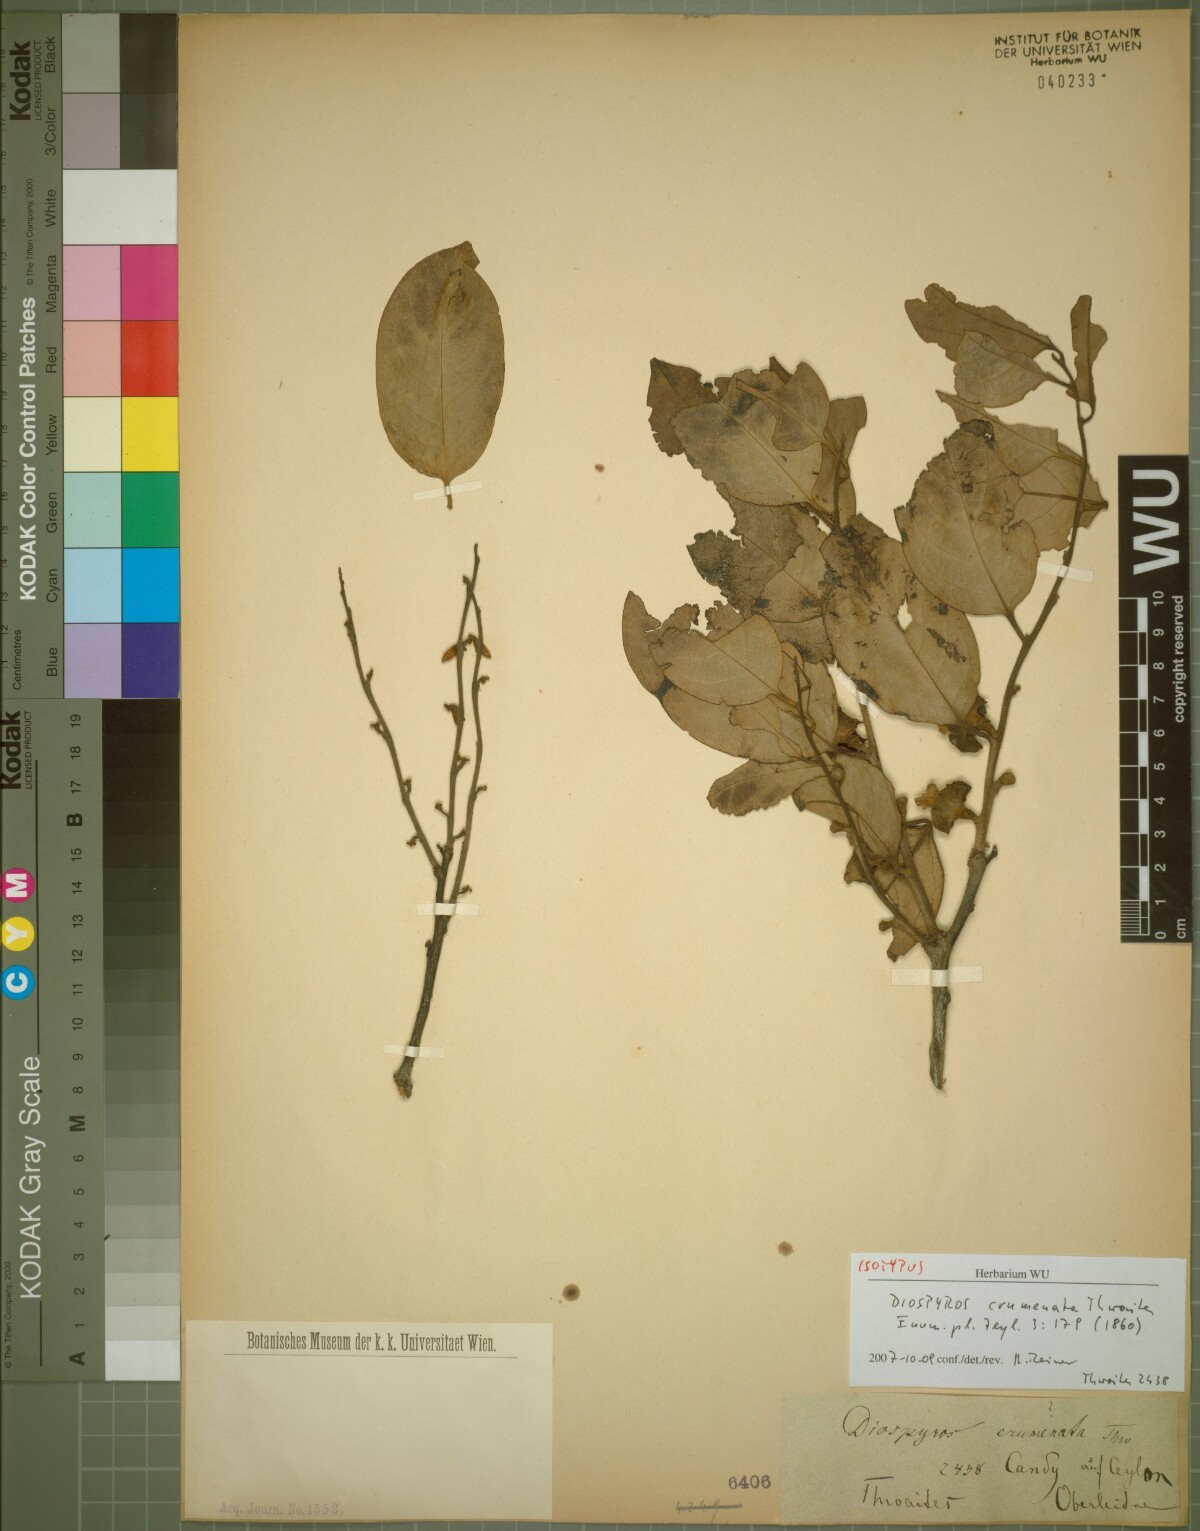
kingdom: Plantae
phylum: Tracheophyta
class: Magnoliopsida
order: Ericales
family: Ebenaceae
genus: Diospyros
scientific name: Diospyros crumenata
